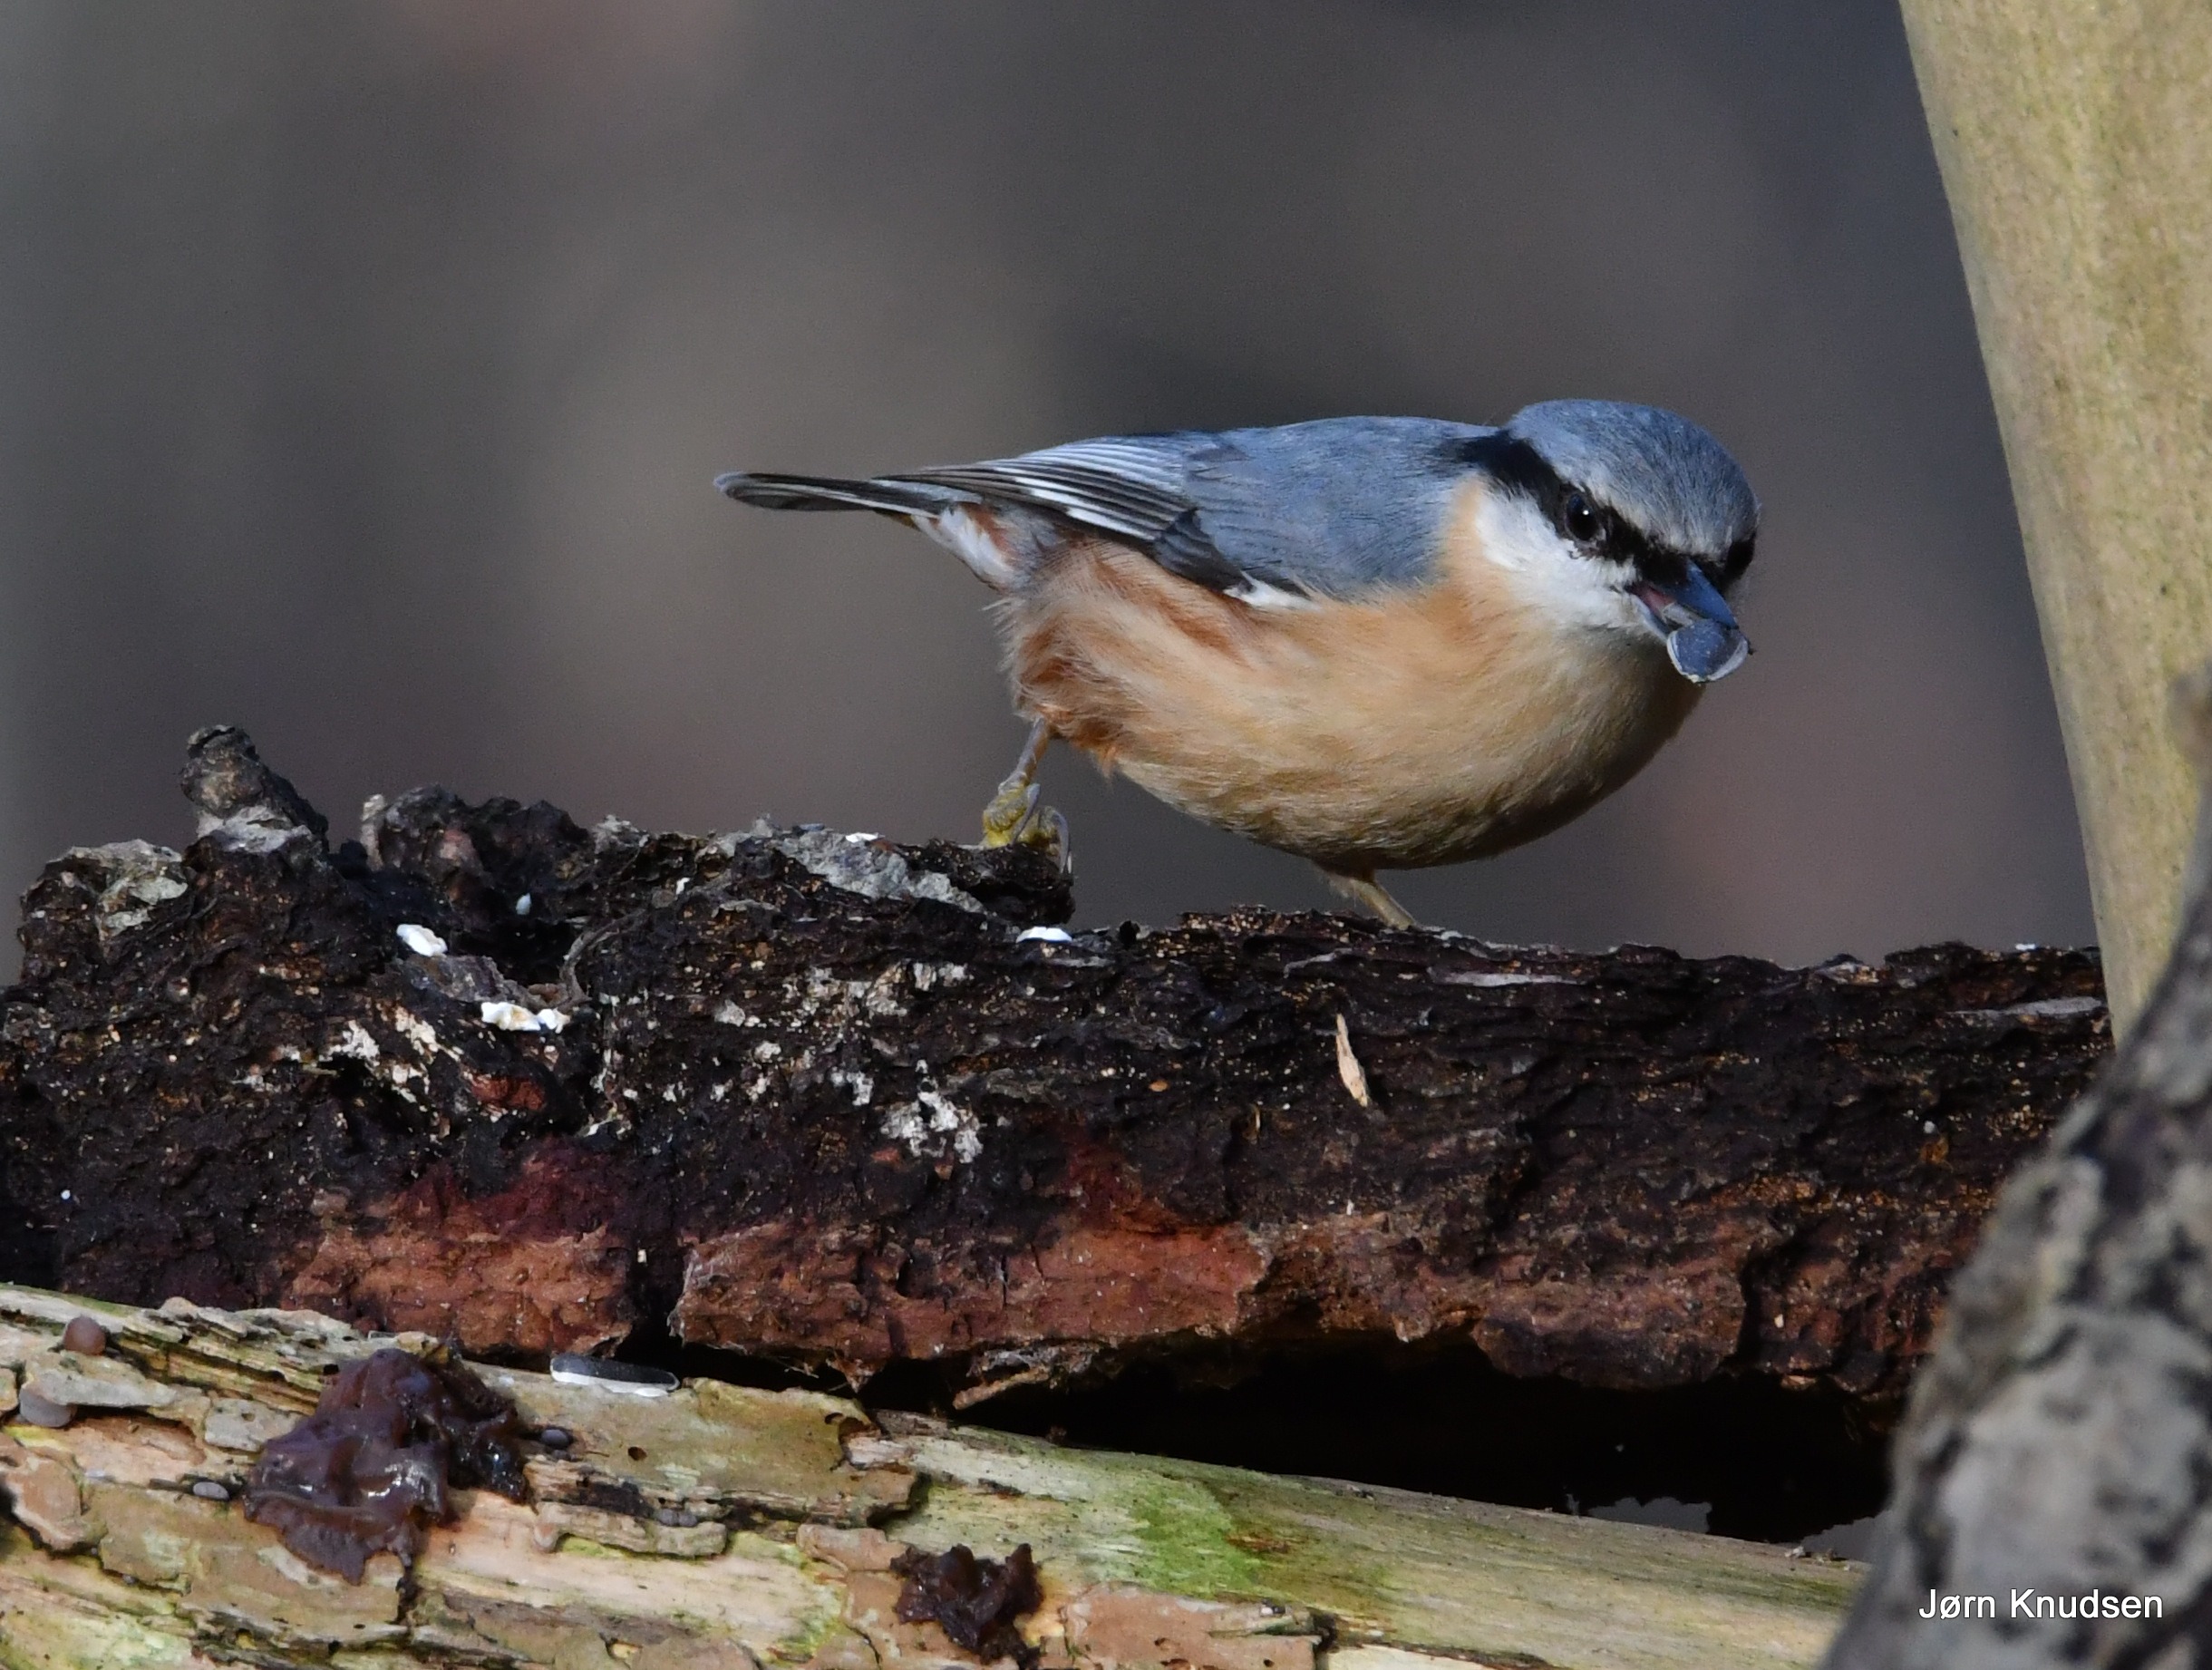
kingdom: Animalia
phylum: Chordata
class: Aves
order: Passeriformes
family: Sittidae
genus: Sitta
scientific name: Sitta europaea
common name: Spætmejse
